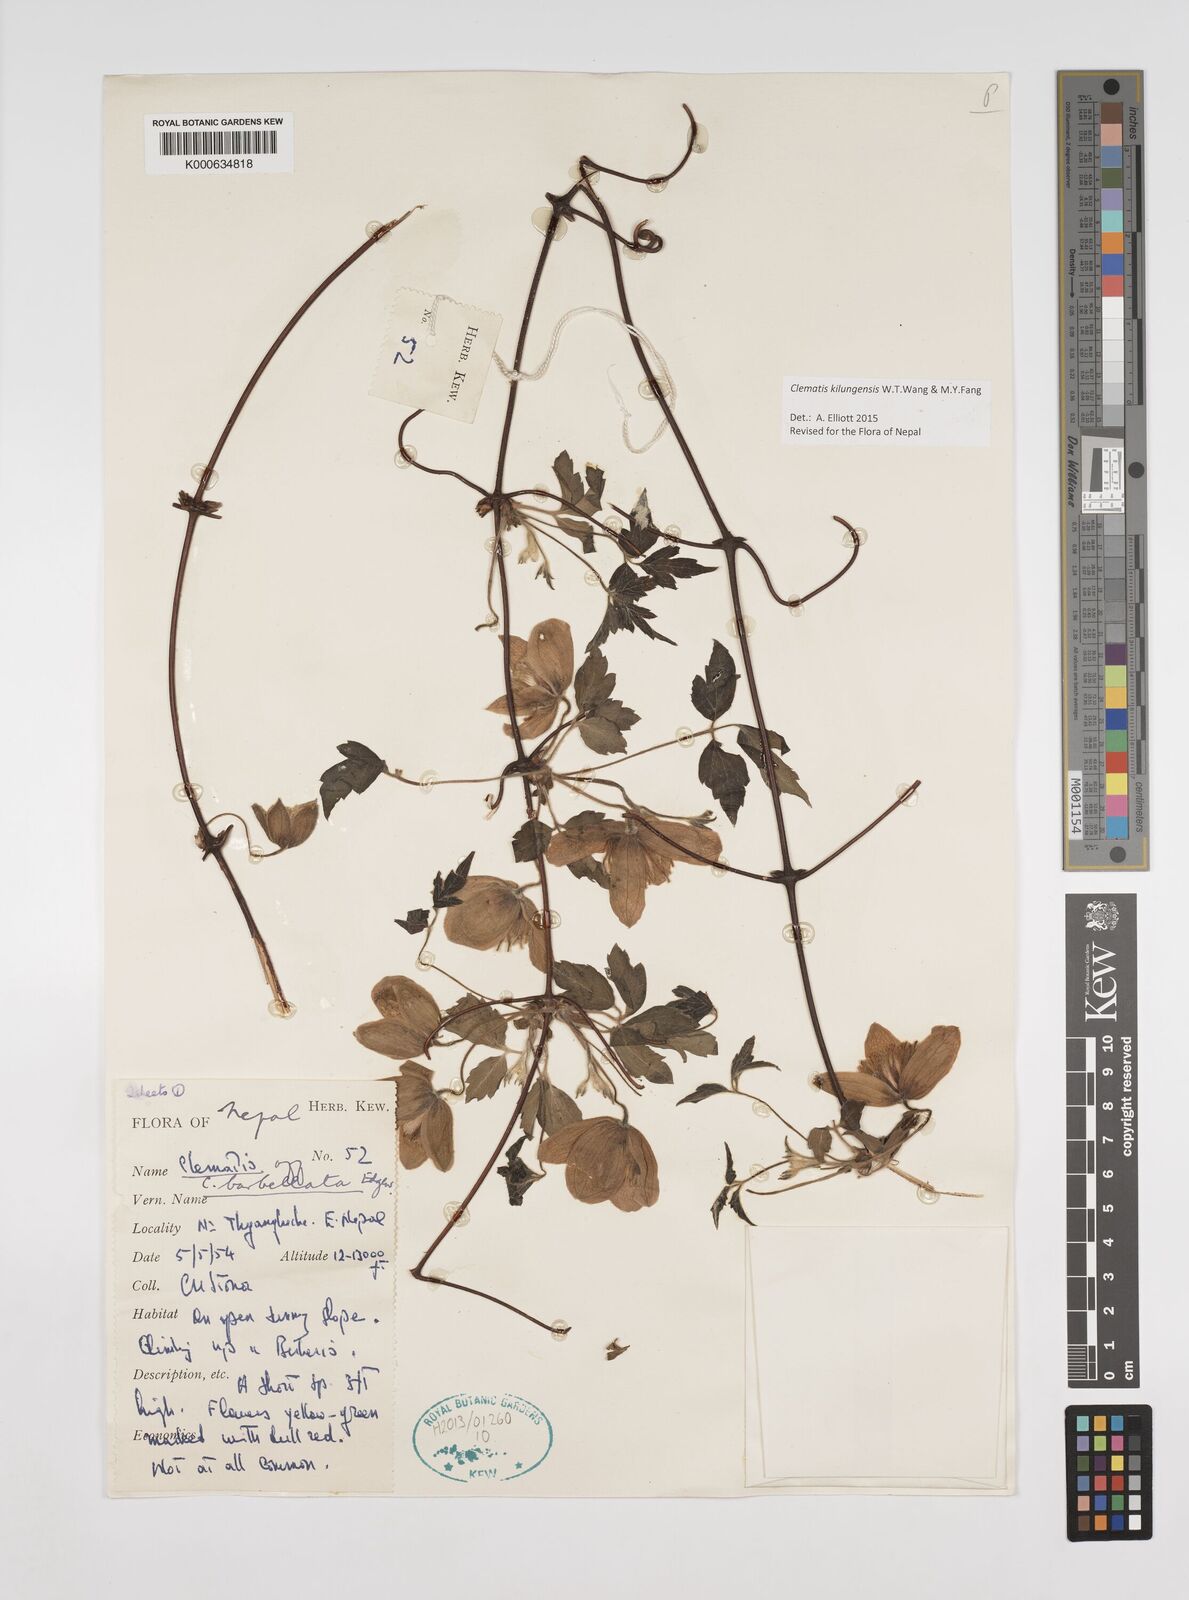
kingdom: Plantae
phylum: Tracheophyta
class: Magnoliopsida
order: Ranunculales
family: Ranunculaceae
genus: Clematis
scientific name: Clematis barbellata
